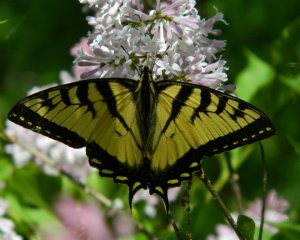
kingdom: Animalia
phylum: Arthropoda
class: Insecta
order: Lepidoptera
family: Papilionidae
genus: Pterourus
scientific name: Pterourus canadensis
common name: Canadian Tiger Swallowtail
